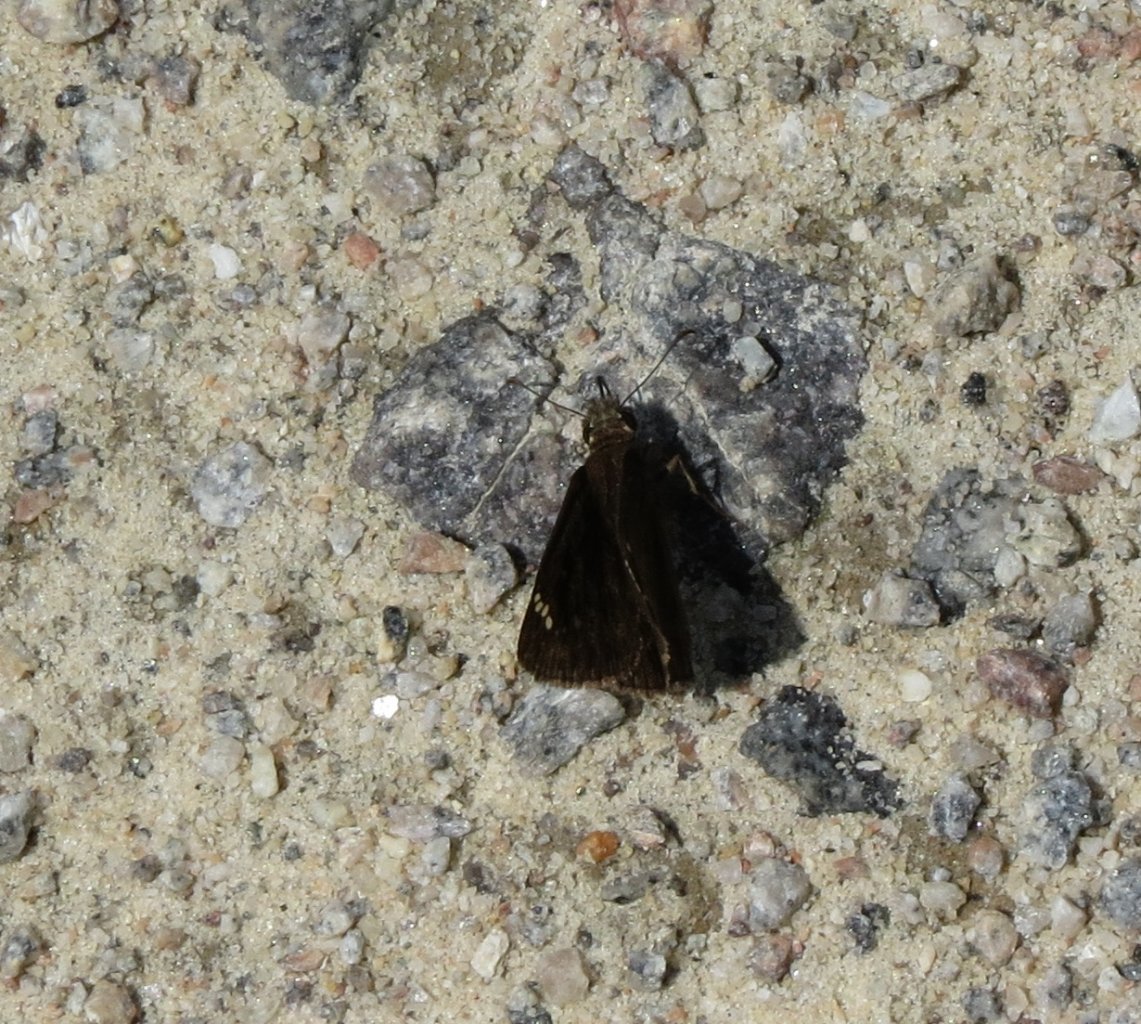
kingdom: Animalia
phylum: Arthropoda
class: Insecta
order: Lepidoptera
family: Hesperiidae
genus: Erynnis
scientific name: Erynnis zarucco
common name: Zarucco Duskywing
